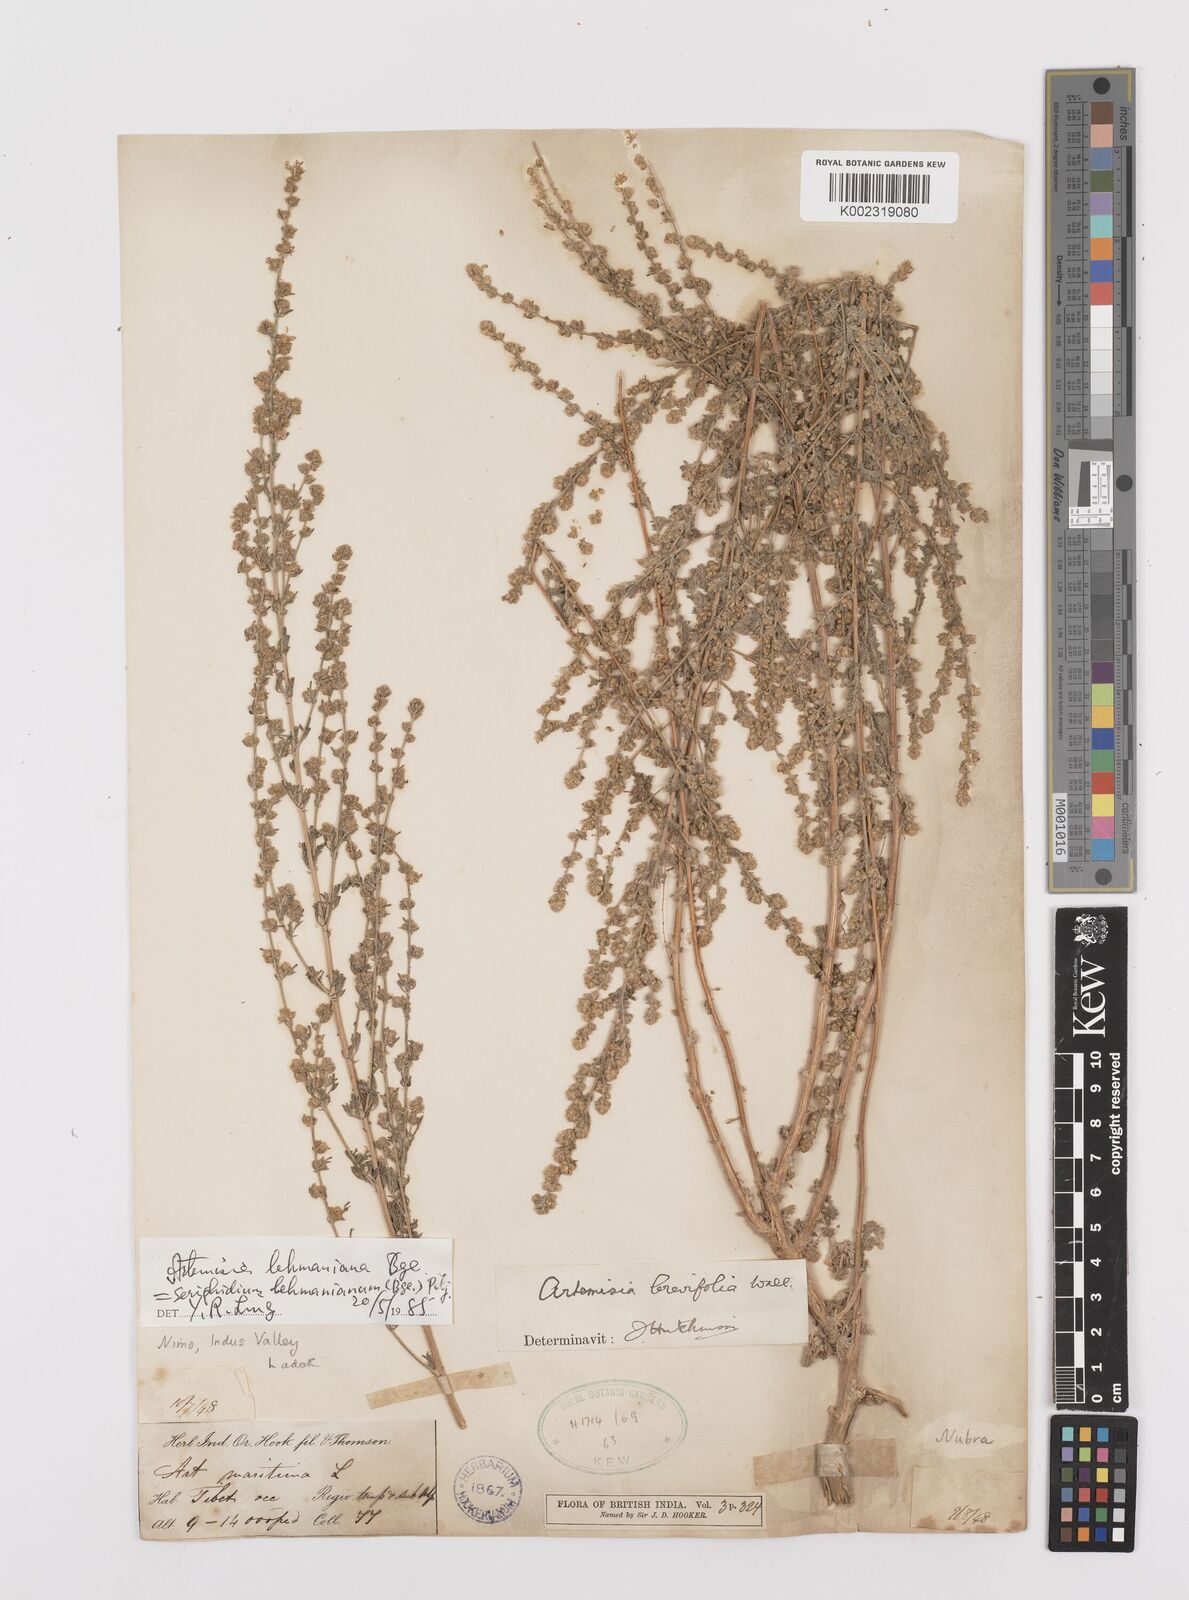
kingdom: Plantae
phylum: Tracheophyta
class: Magnoliopsida
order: Asterales
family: Asteraceae
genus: Artemisia
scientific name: Artemisia lehmanniana
